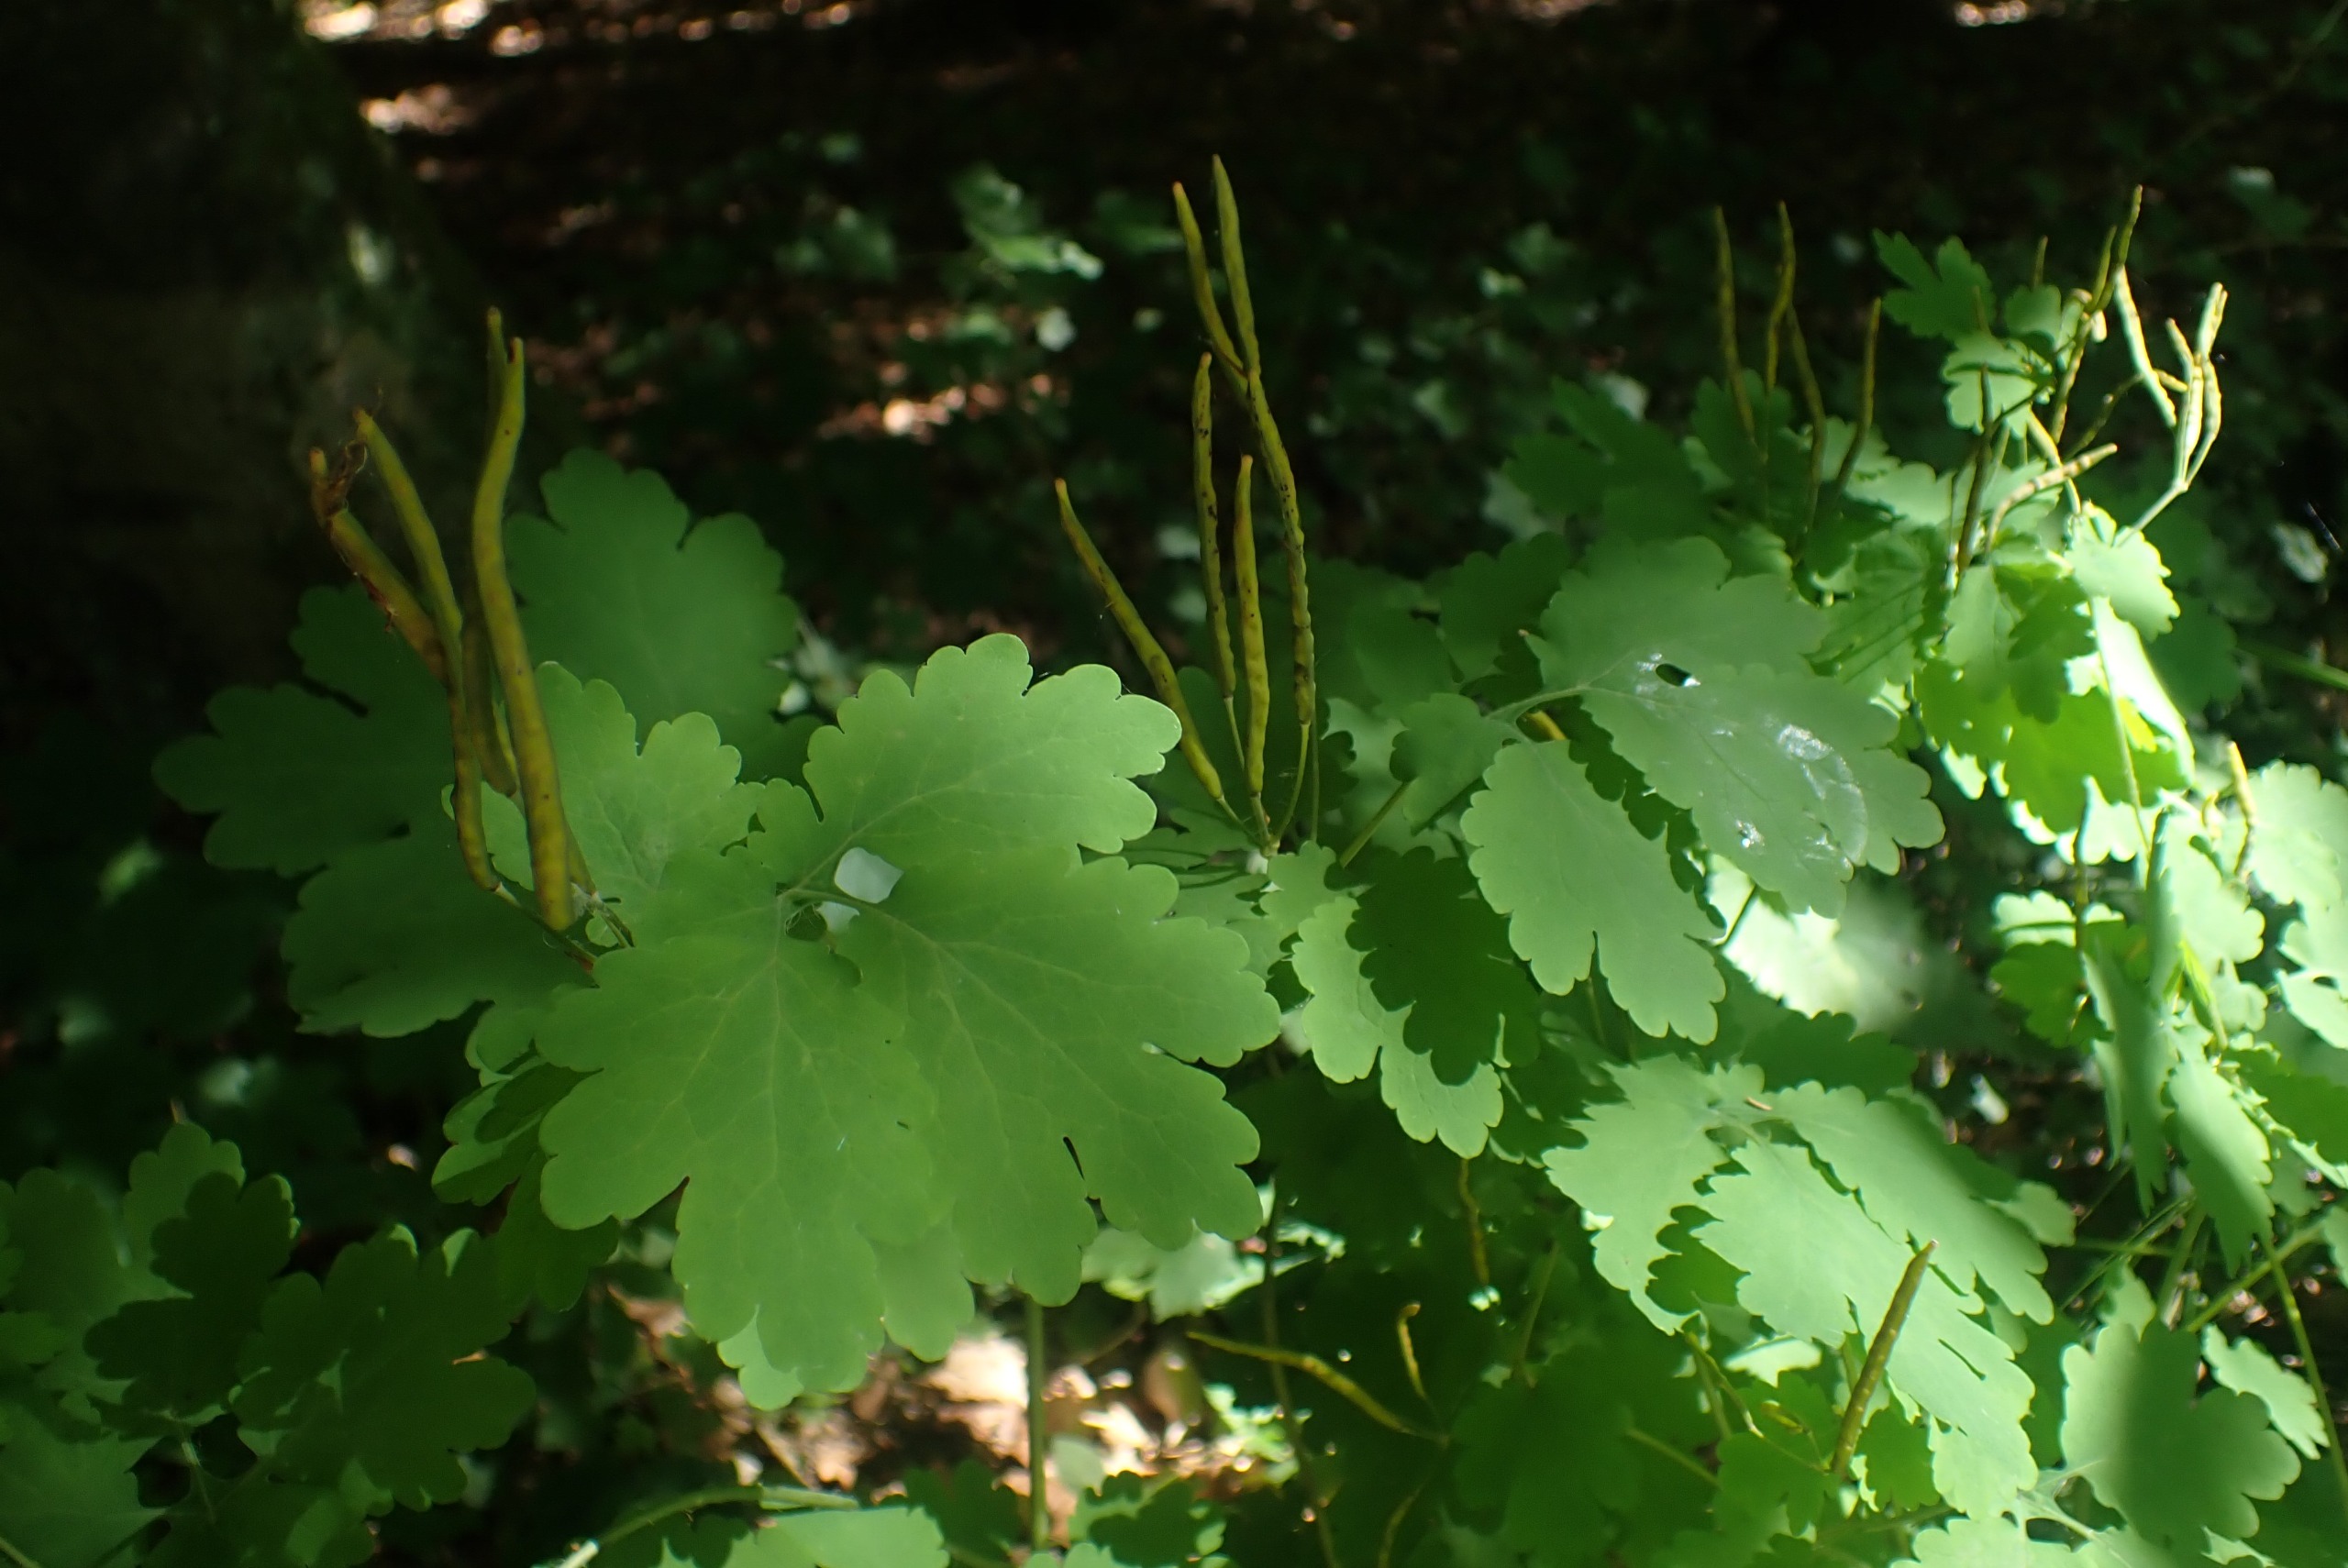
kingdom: Plantae
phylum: Tracheophyta
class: Magnoliopsida
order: Ranunculales
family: Papaveraceae
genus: Chelidonium
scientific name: Chelidonium majus
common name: Svaleurt
